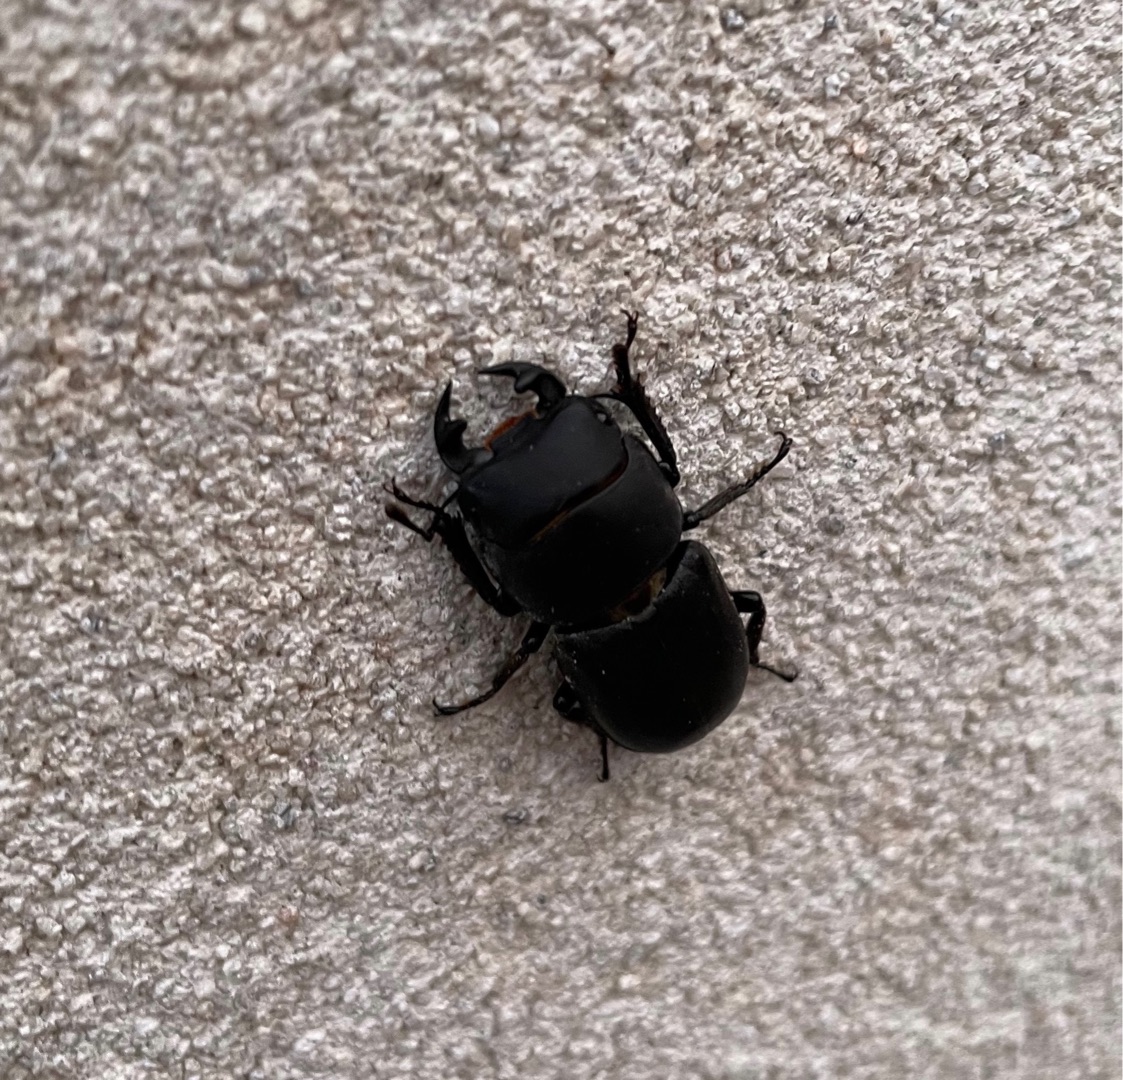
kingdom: Animalia
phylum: Arthropoda
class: Insecta
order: Coleoptera
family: Lucanidae
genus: Dorcus
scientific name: Dorcus parallelipipedus
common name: Bøghjort
